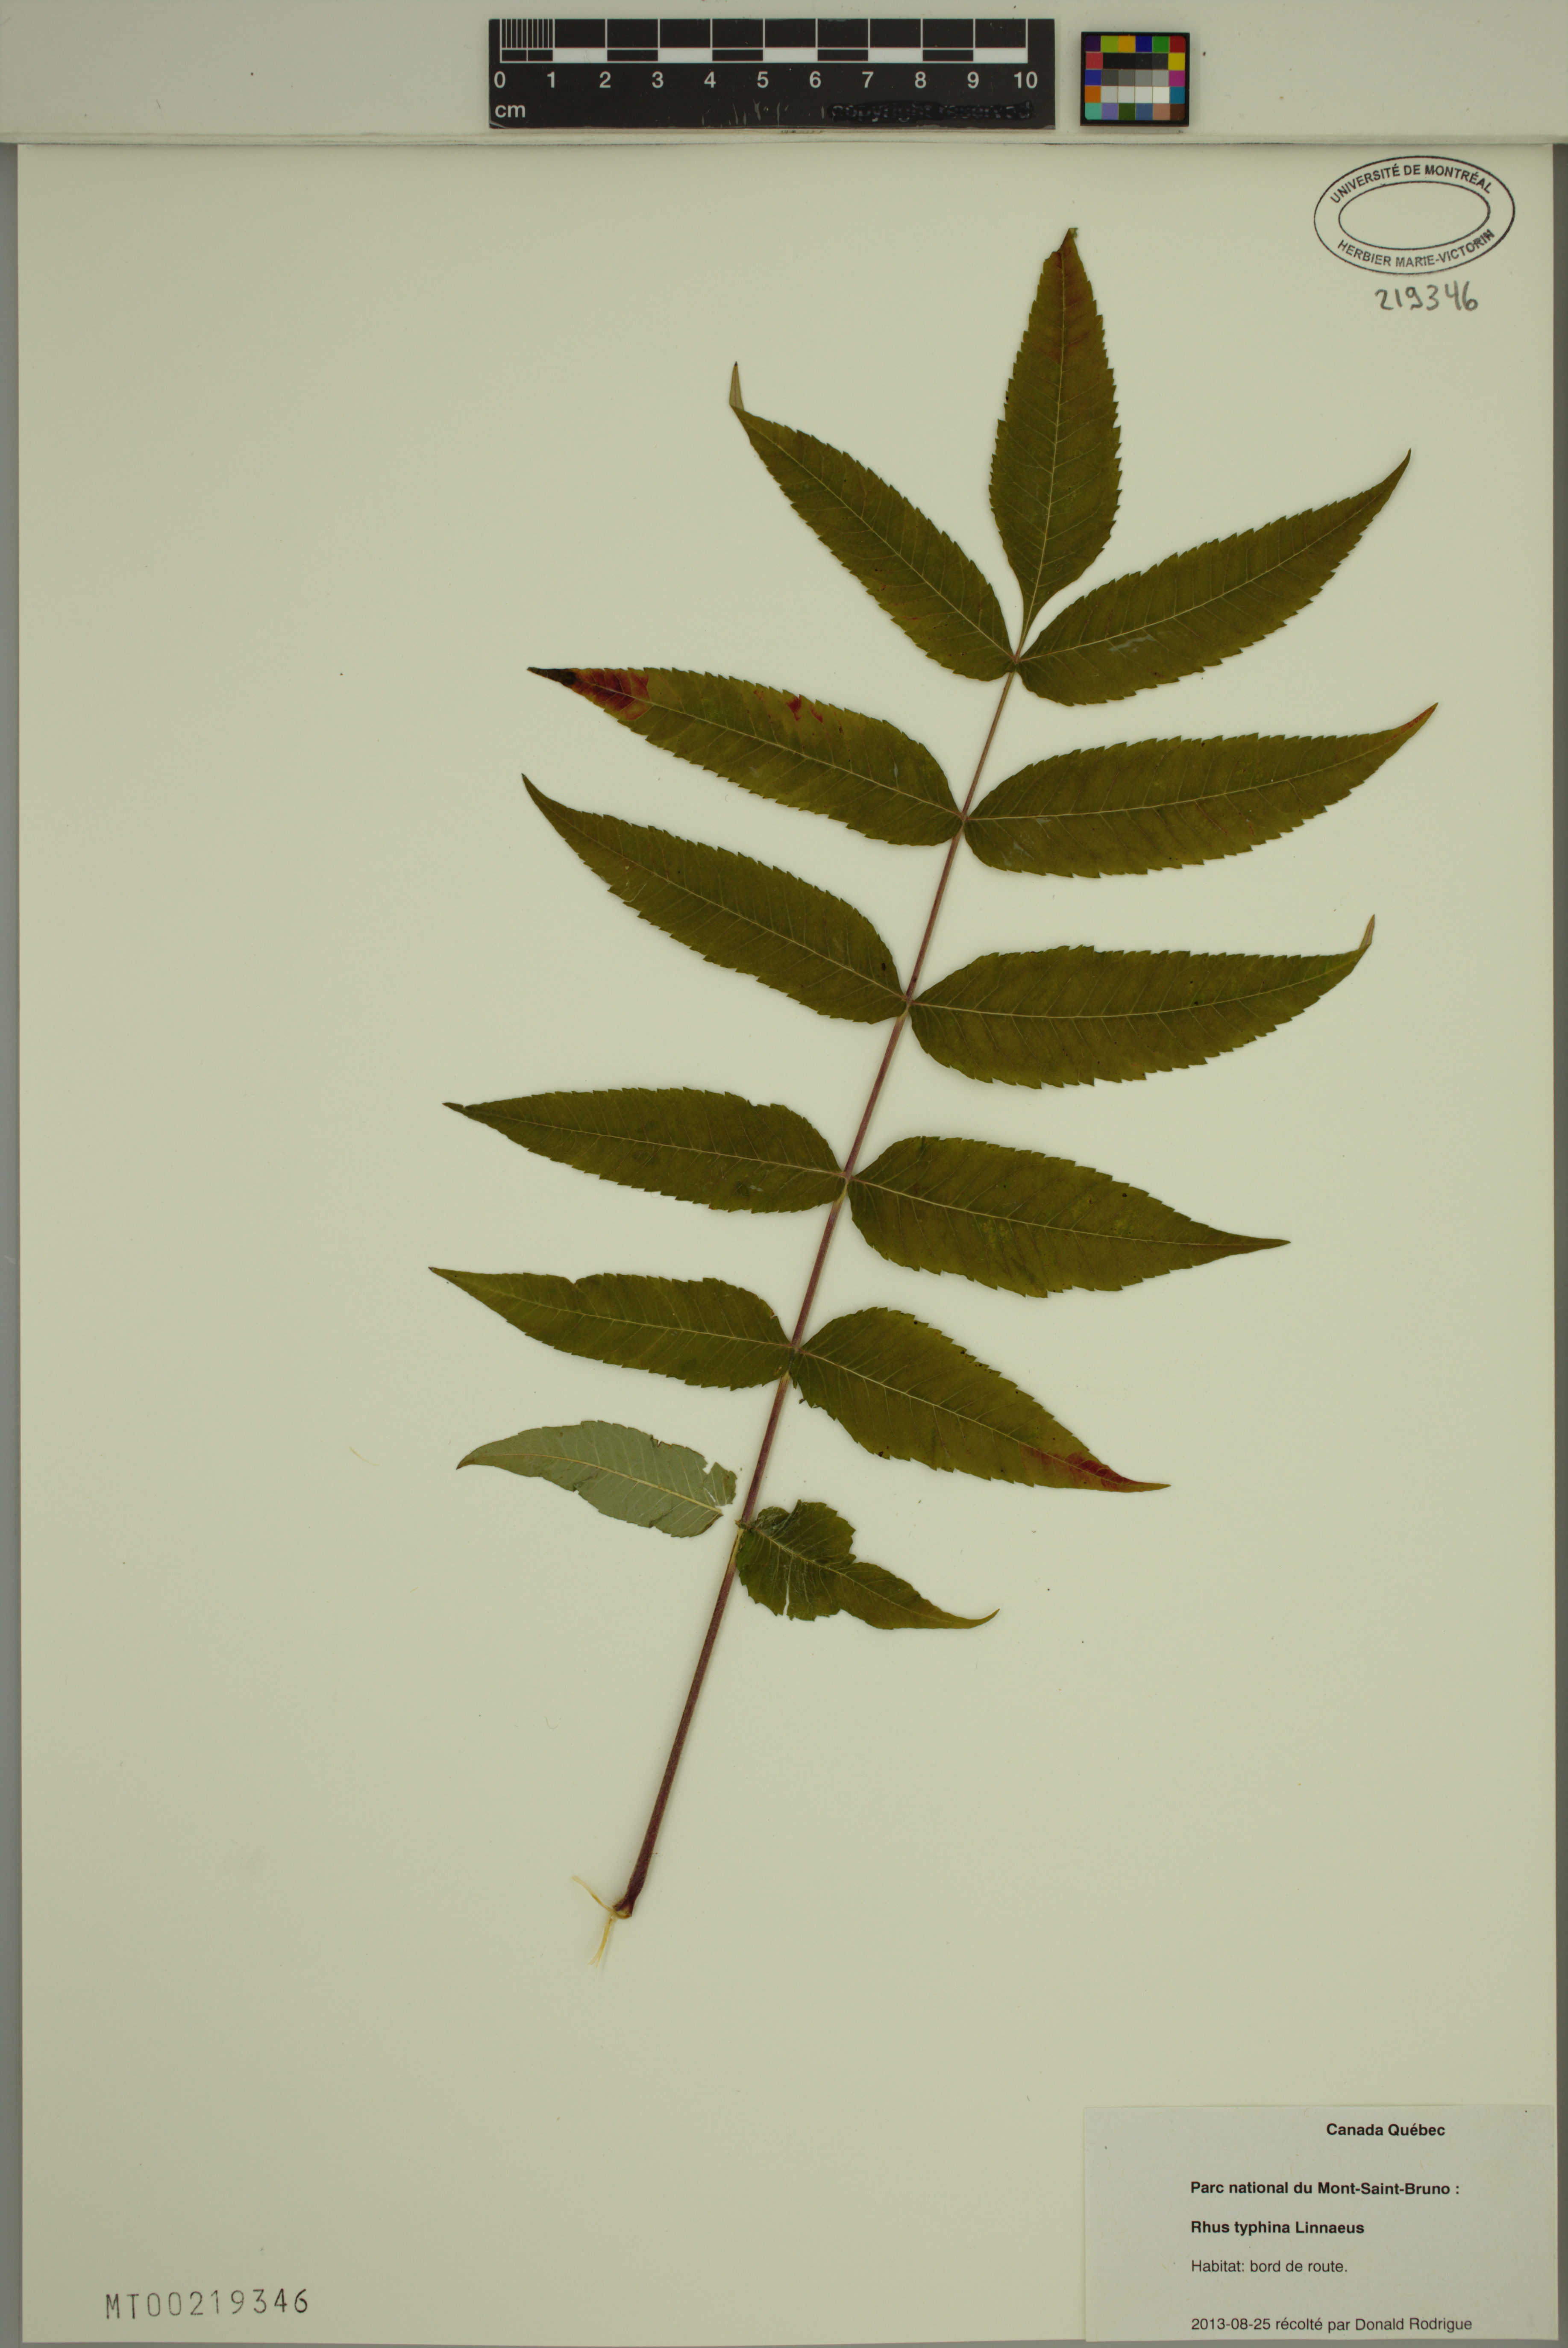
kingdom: Plantae
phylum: Tracheophyta
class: Magnoliopsida
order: Sapindales
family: Anacardiaceae
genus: Rhus
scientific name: Rhus typhina
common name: Staghorn sumac
